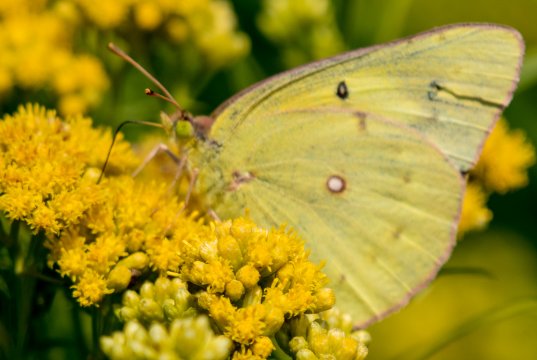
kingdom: Animalia
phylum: Arthropoda
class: Insecta
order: Lepidoptera
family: Pieridae
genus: Colias
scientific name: Colias eurytheme
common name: Orange Sulphur
